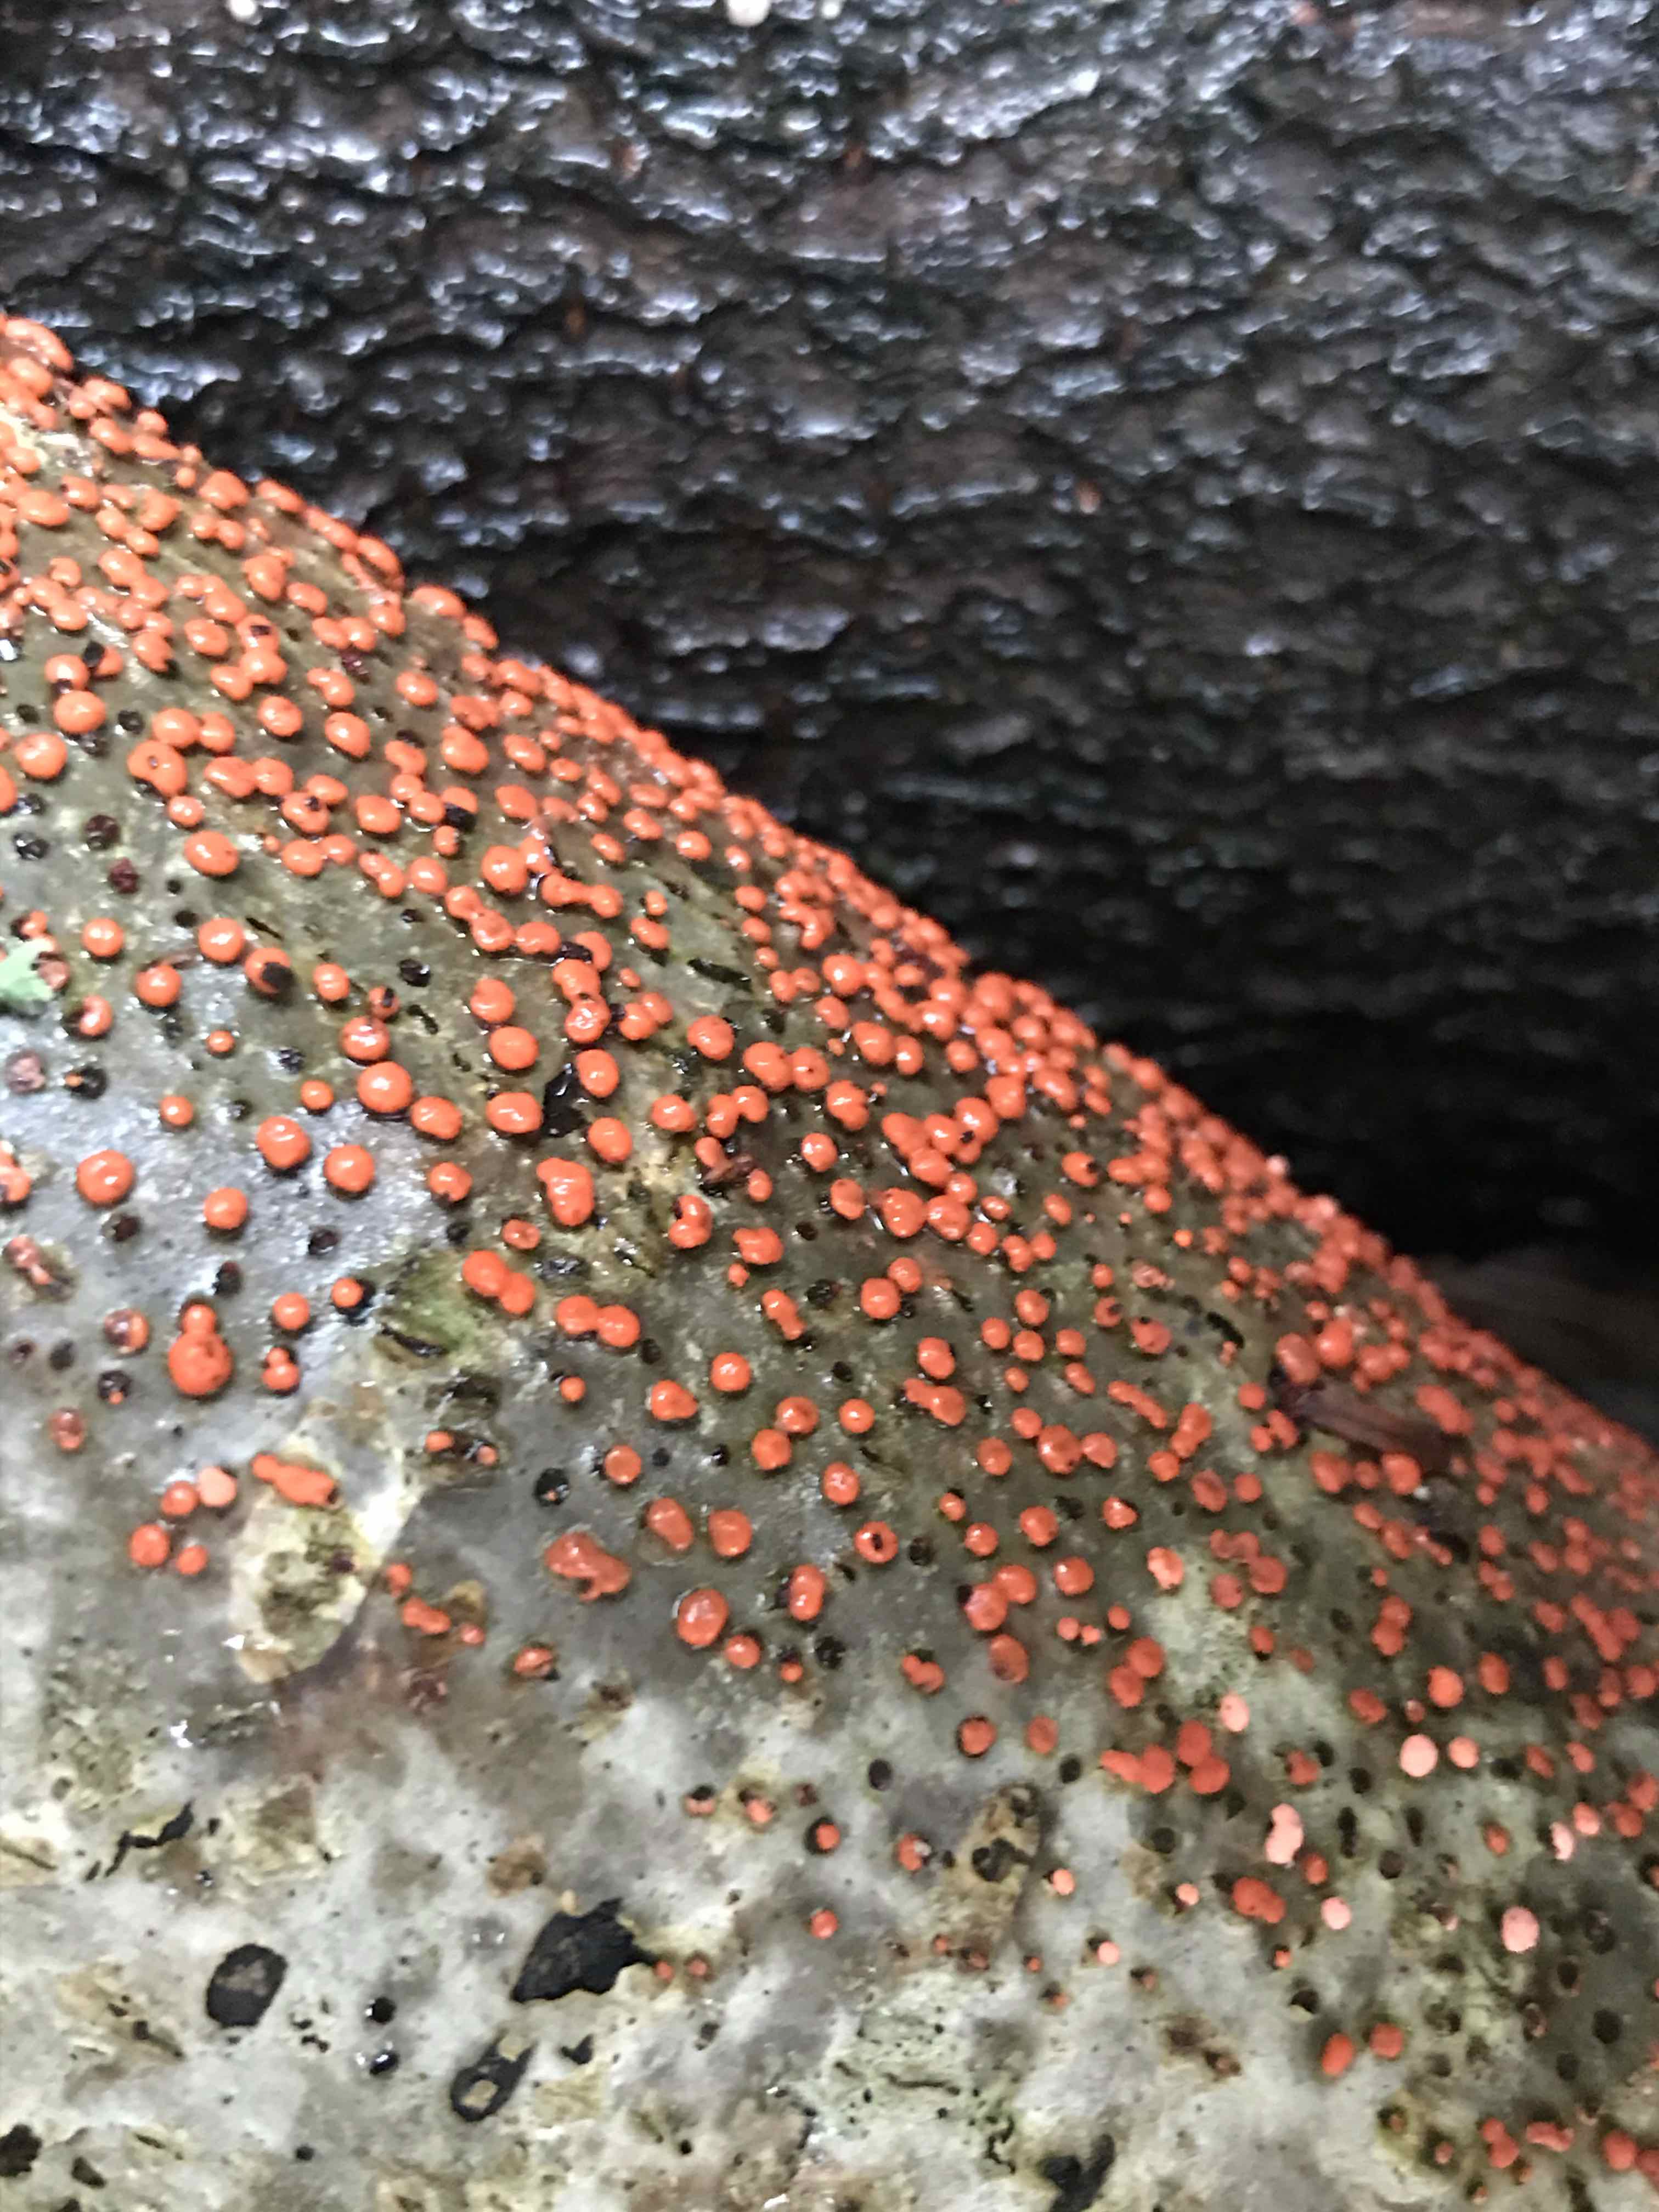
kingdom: Fungi
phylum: Ascomycota
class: Sordariomycetes
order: Hypocreales
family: Nectriaceae
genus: Nectria
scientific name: Nectria cinnabarina
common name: almindelig cinnobersvamp
